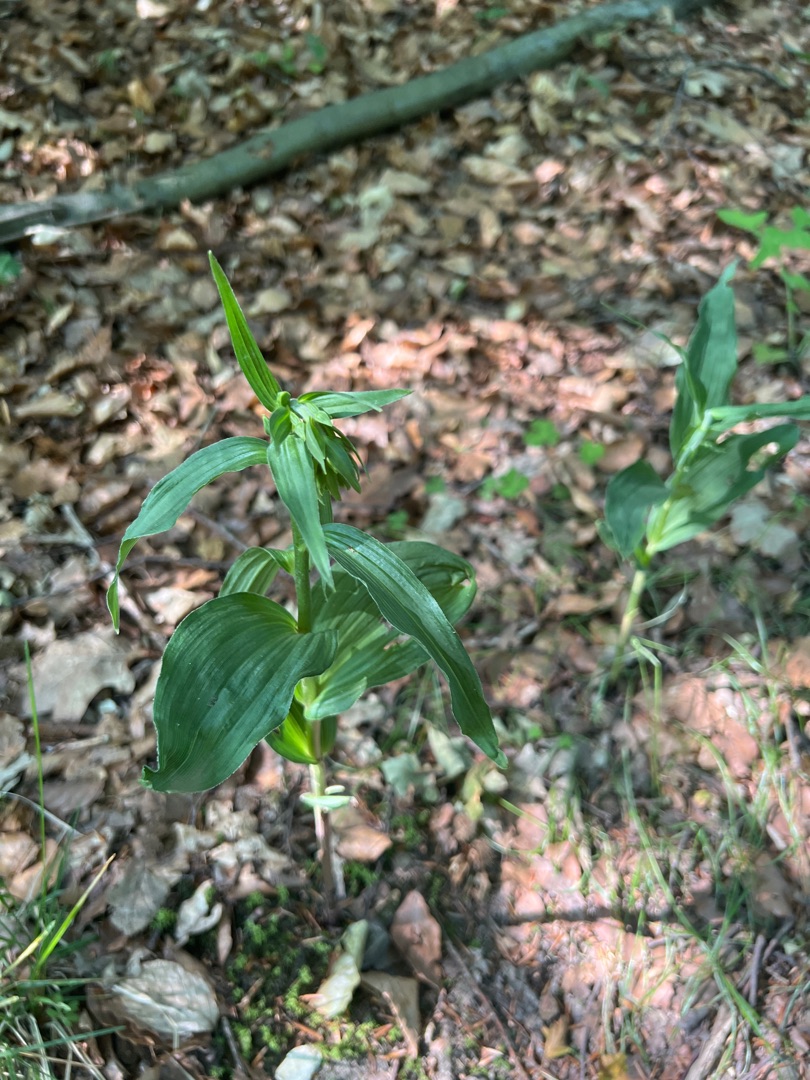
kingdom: Plantae
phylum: Tracheophyta
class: Liliopsida
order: Asparagales
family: Orchidaceae
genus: Epipactis
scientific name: Epipactis helleborine
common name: Skov-hullæbe
